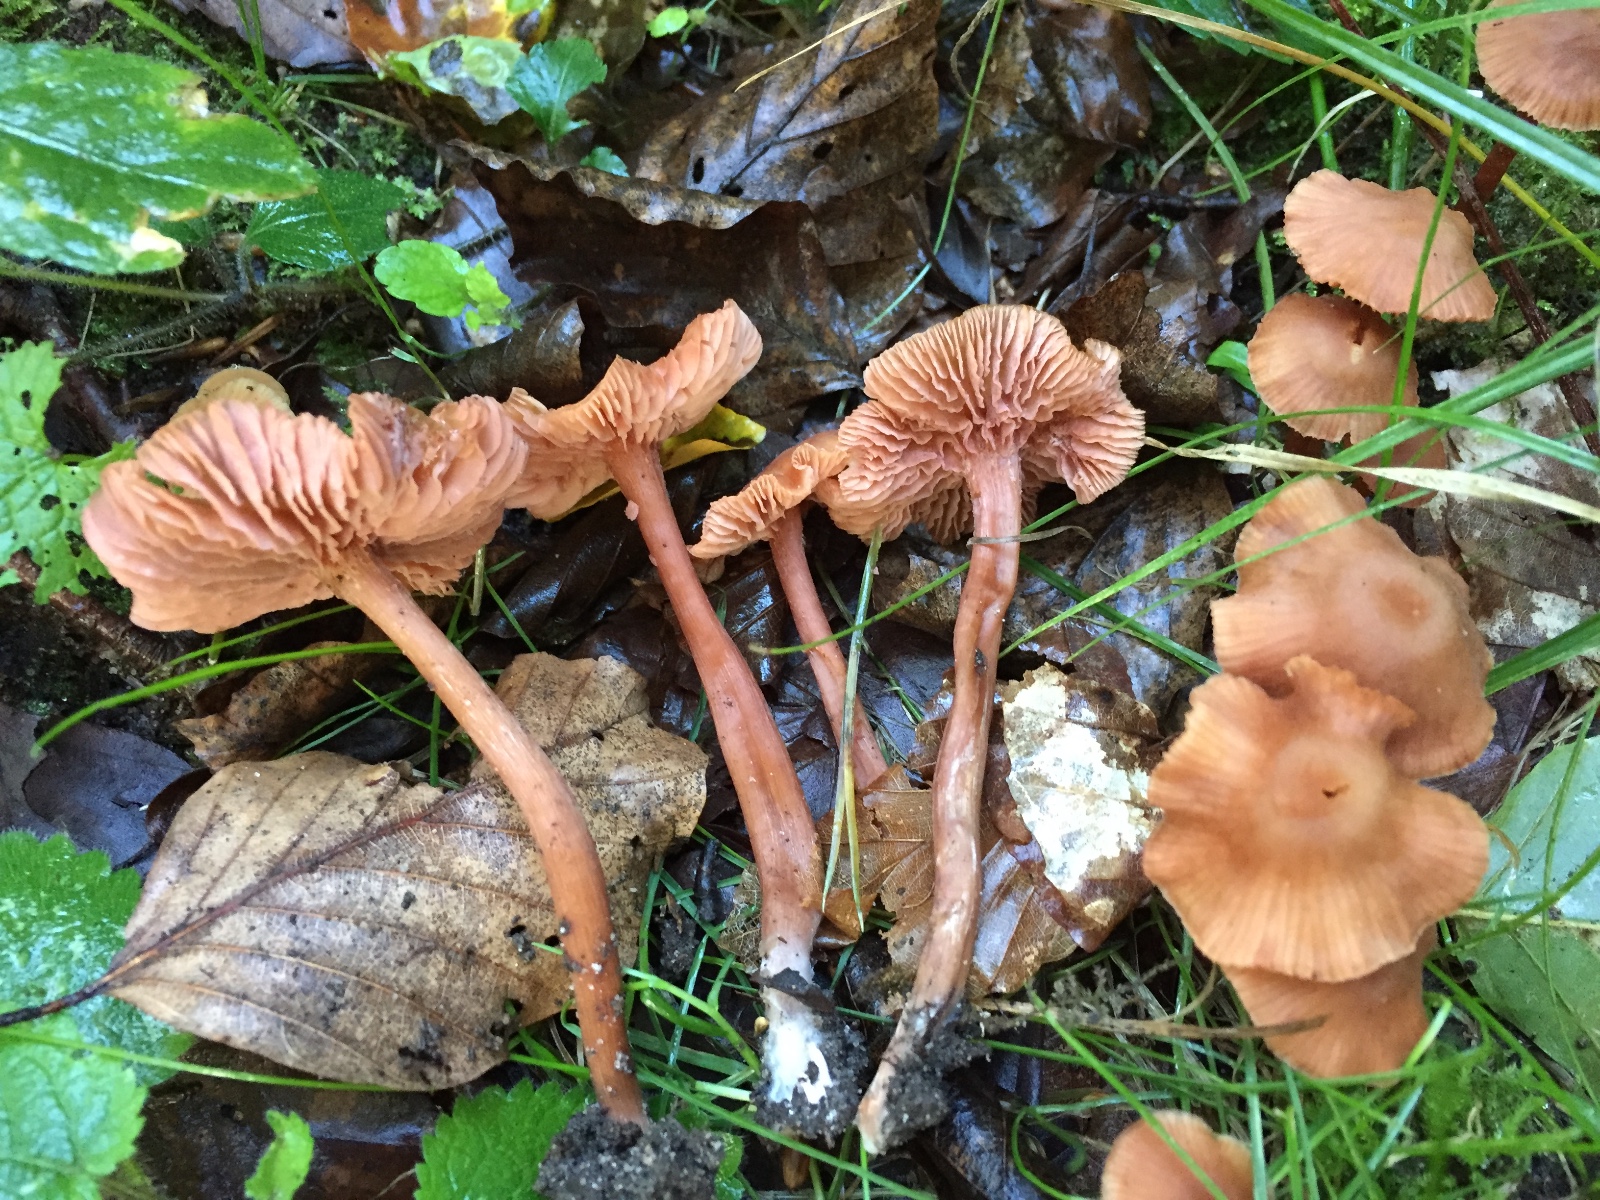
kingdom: Fungi
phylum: Basidiomycota
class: Agaricomycetes
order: Agaricales
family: Hydnangiaceae
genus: Laccaria
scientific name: Laccaria laccata
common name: rød ametysthat
